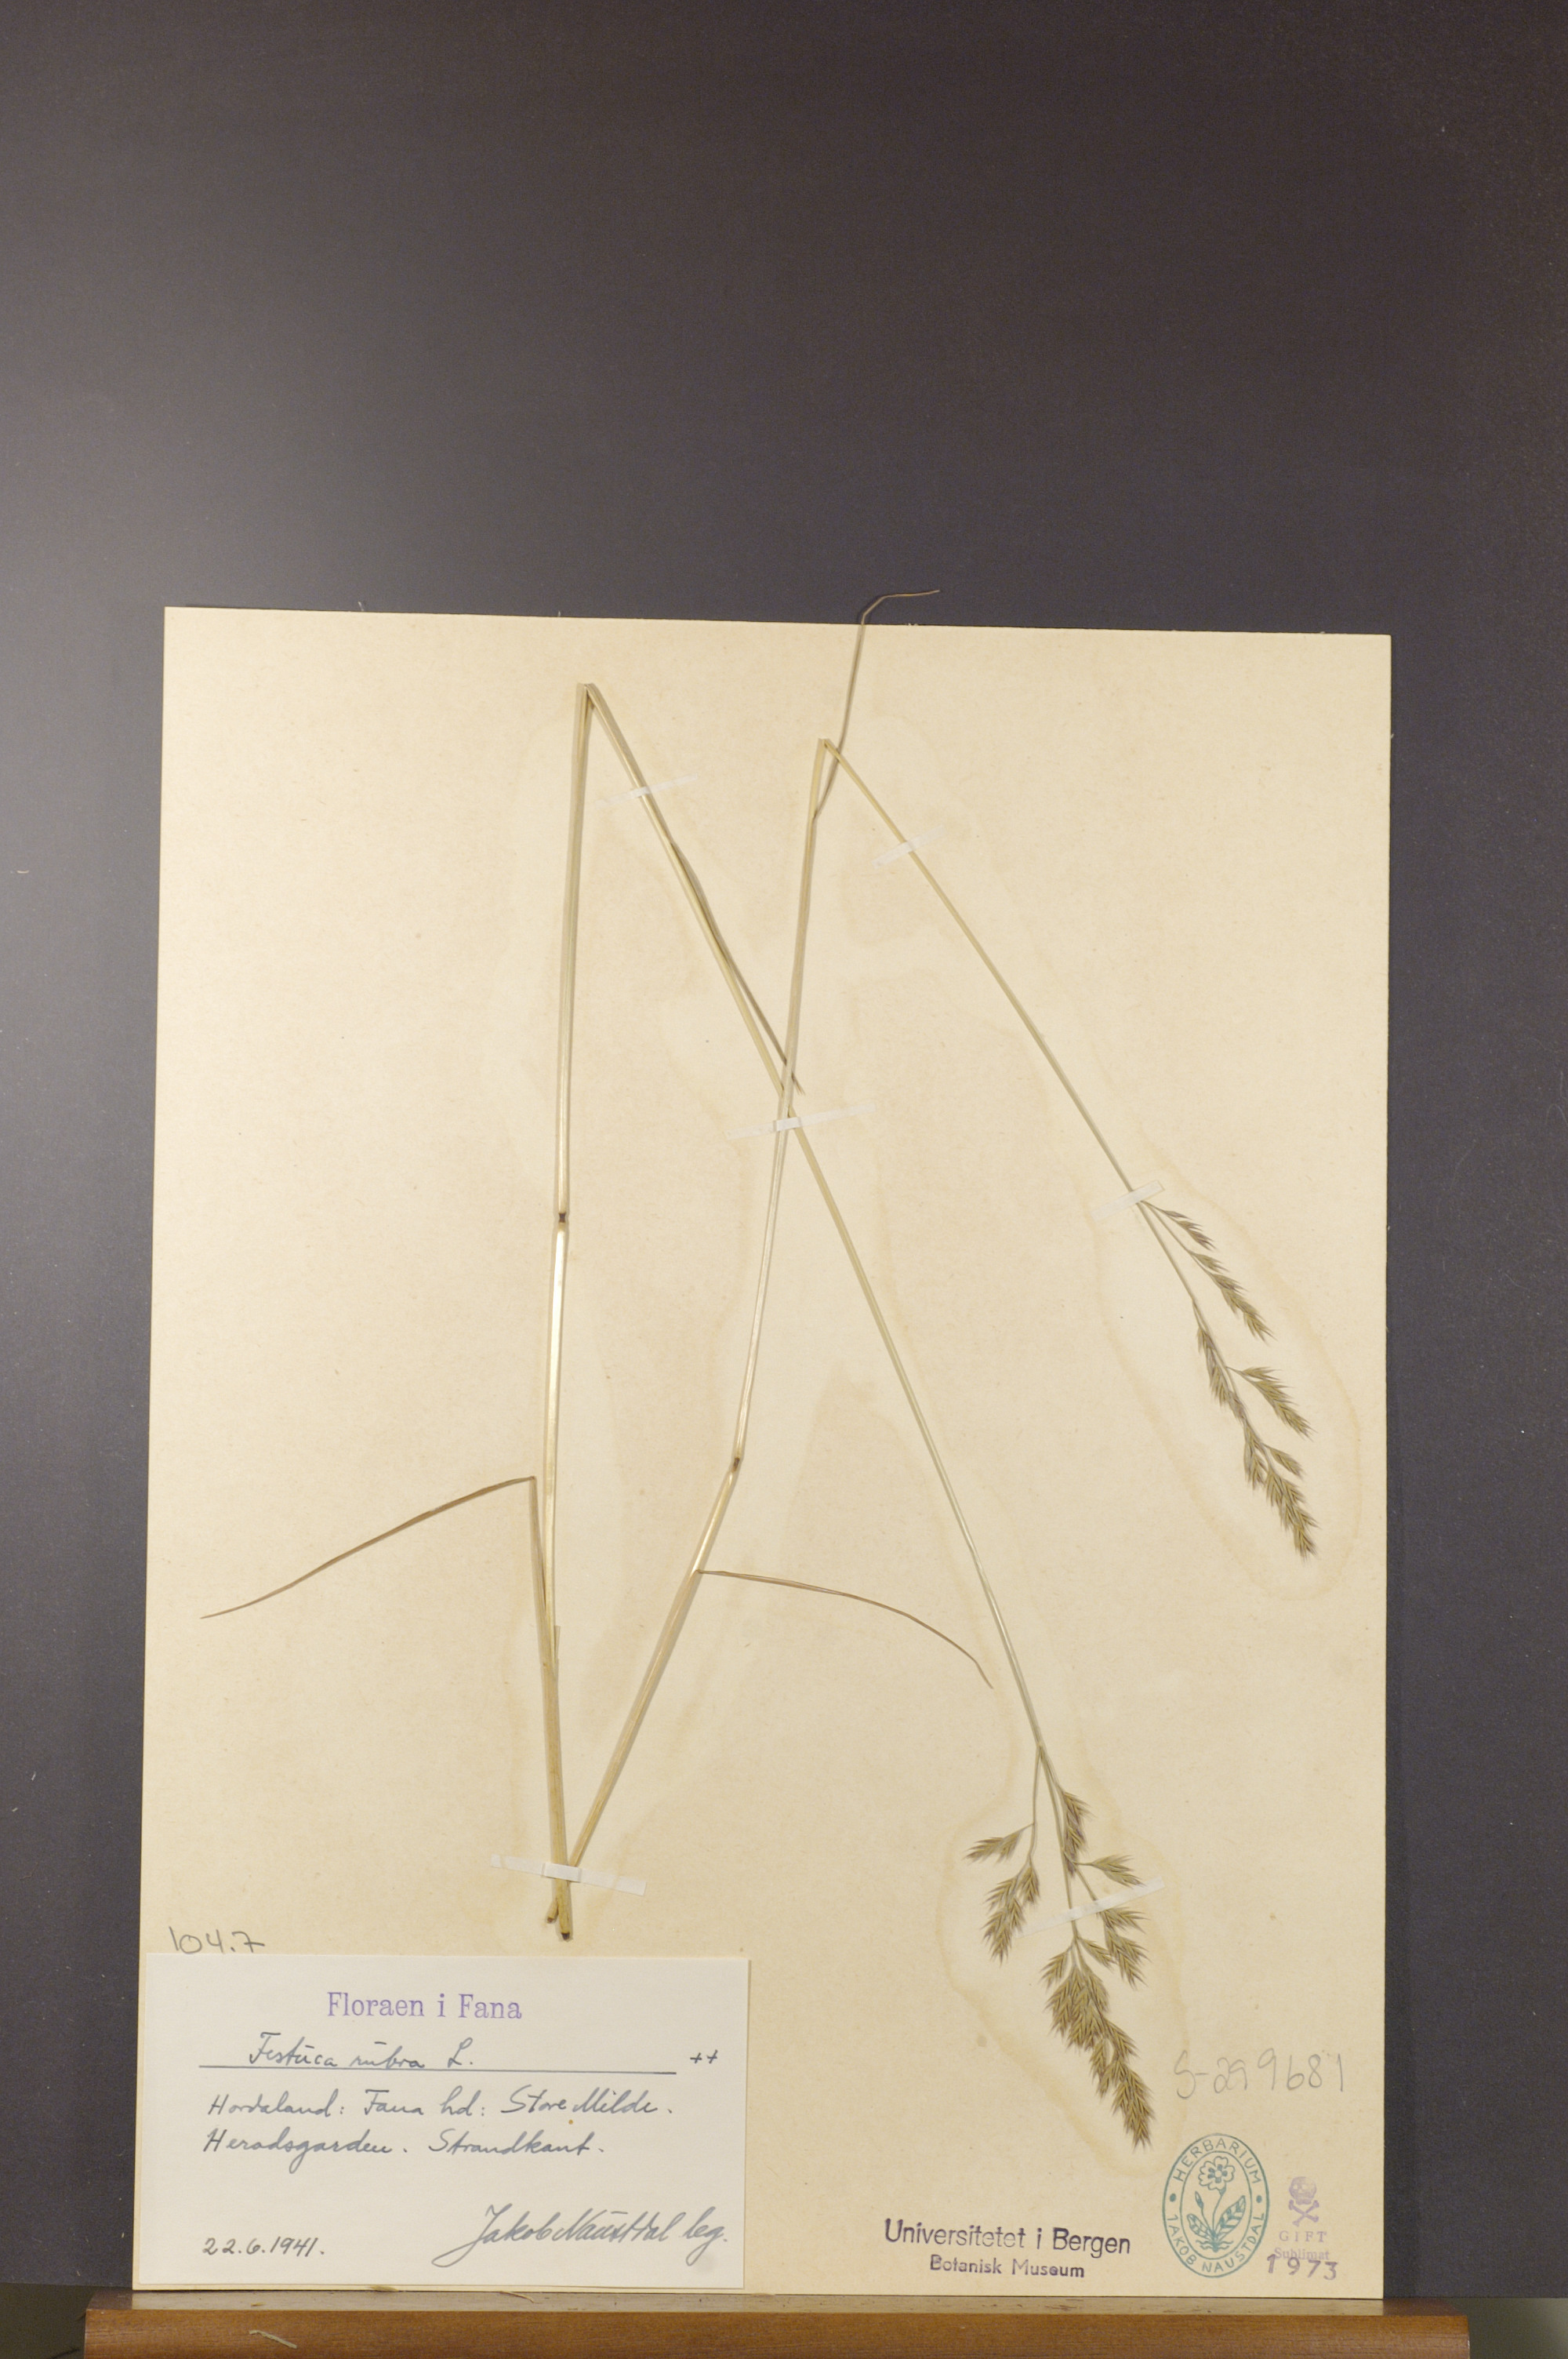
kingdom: Plantae
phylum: Tracheophyta
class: Liliopsida
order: Poales
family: Poaceae
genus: Festuca
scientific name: Festuca rubra
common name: Red fescue
